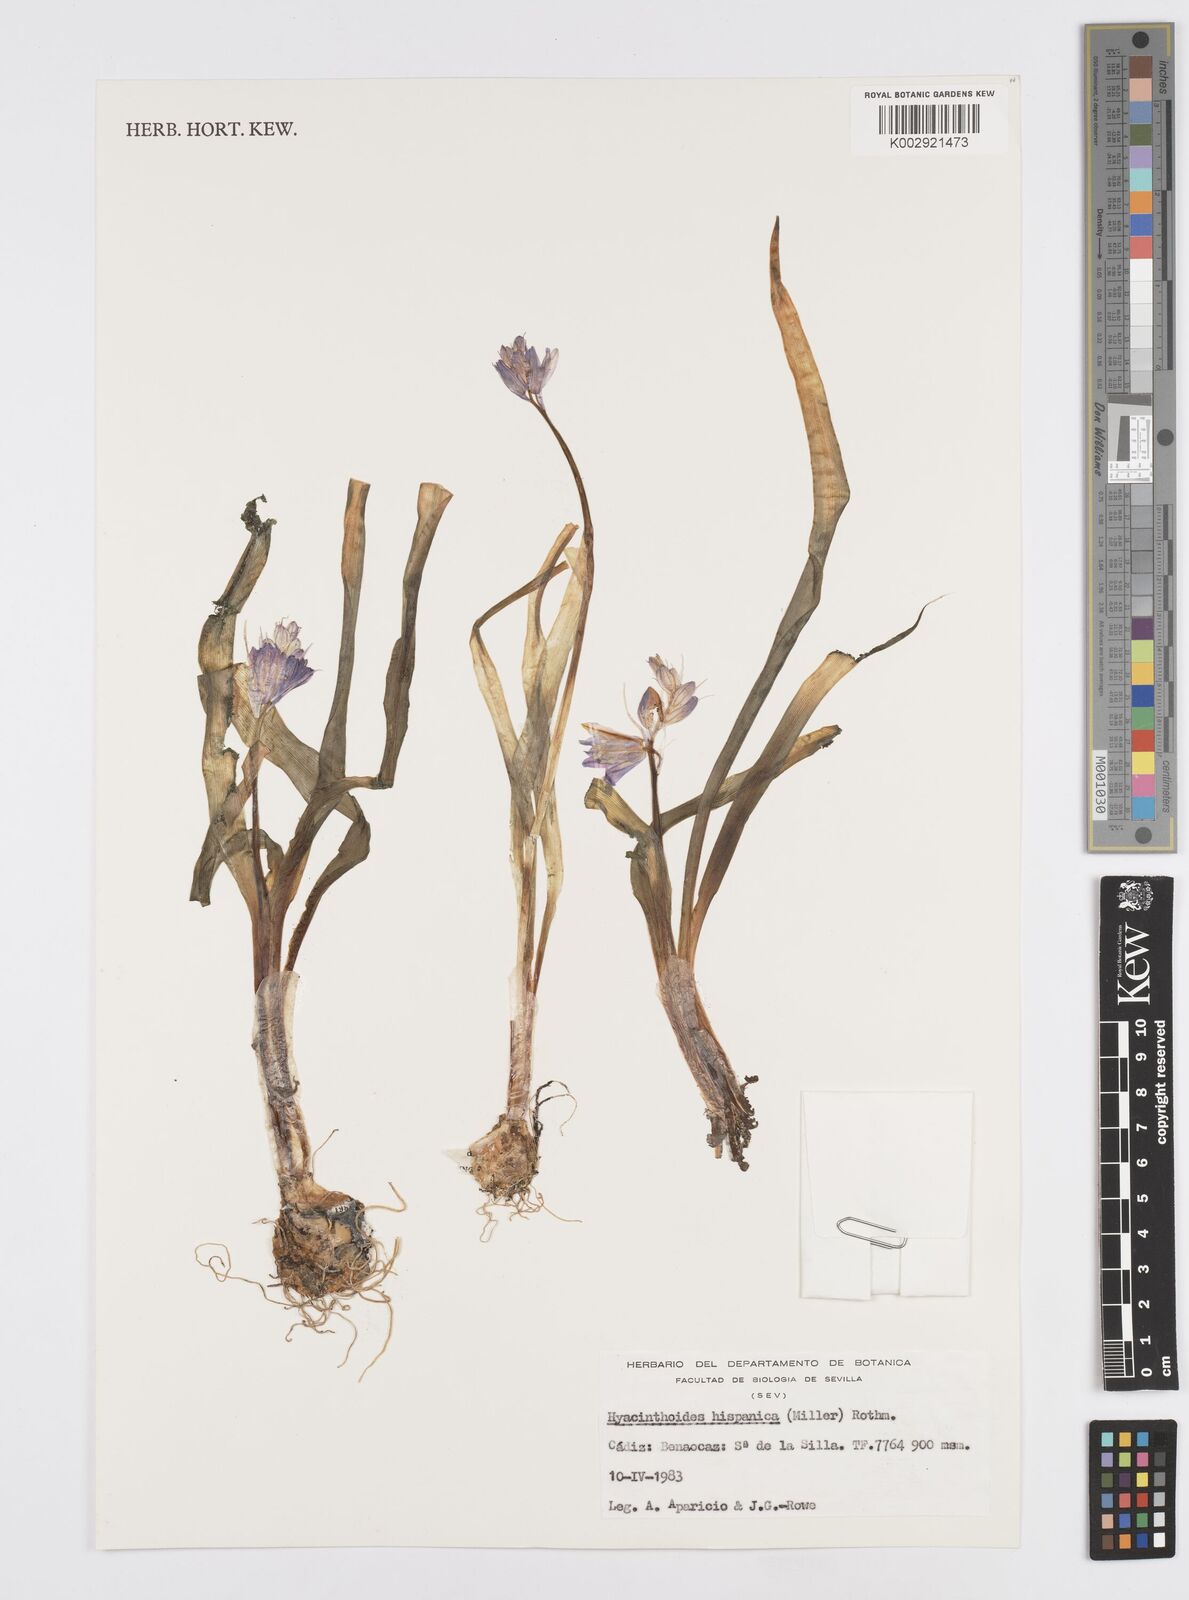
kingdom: Plantae
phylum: Tracheophyta
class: Liliopsida
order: Asparagales
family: Asparagaceae
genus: Hyacinthoides
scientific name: Hyacinthoides hispanica
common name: Spanish bluebell
